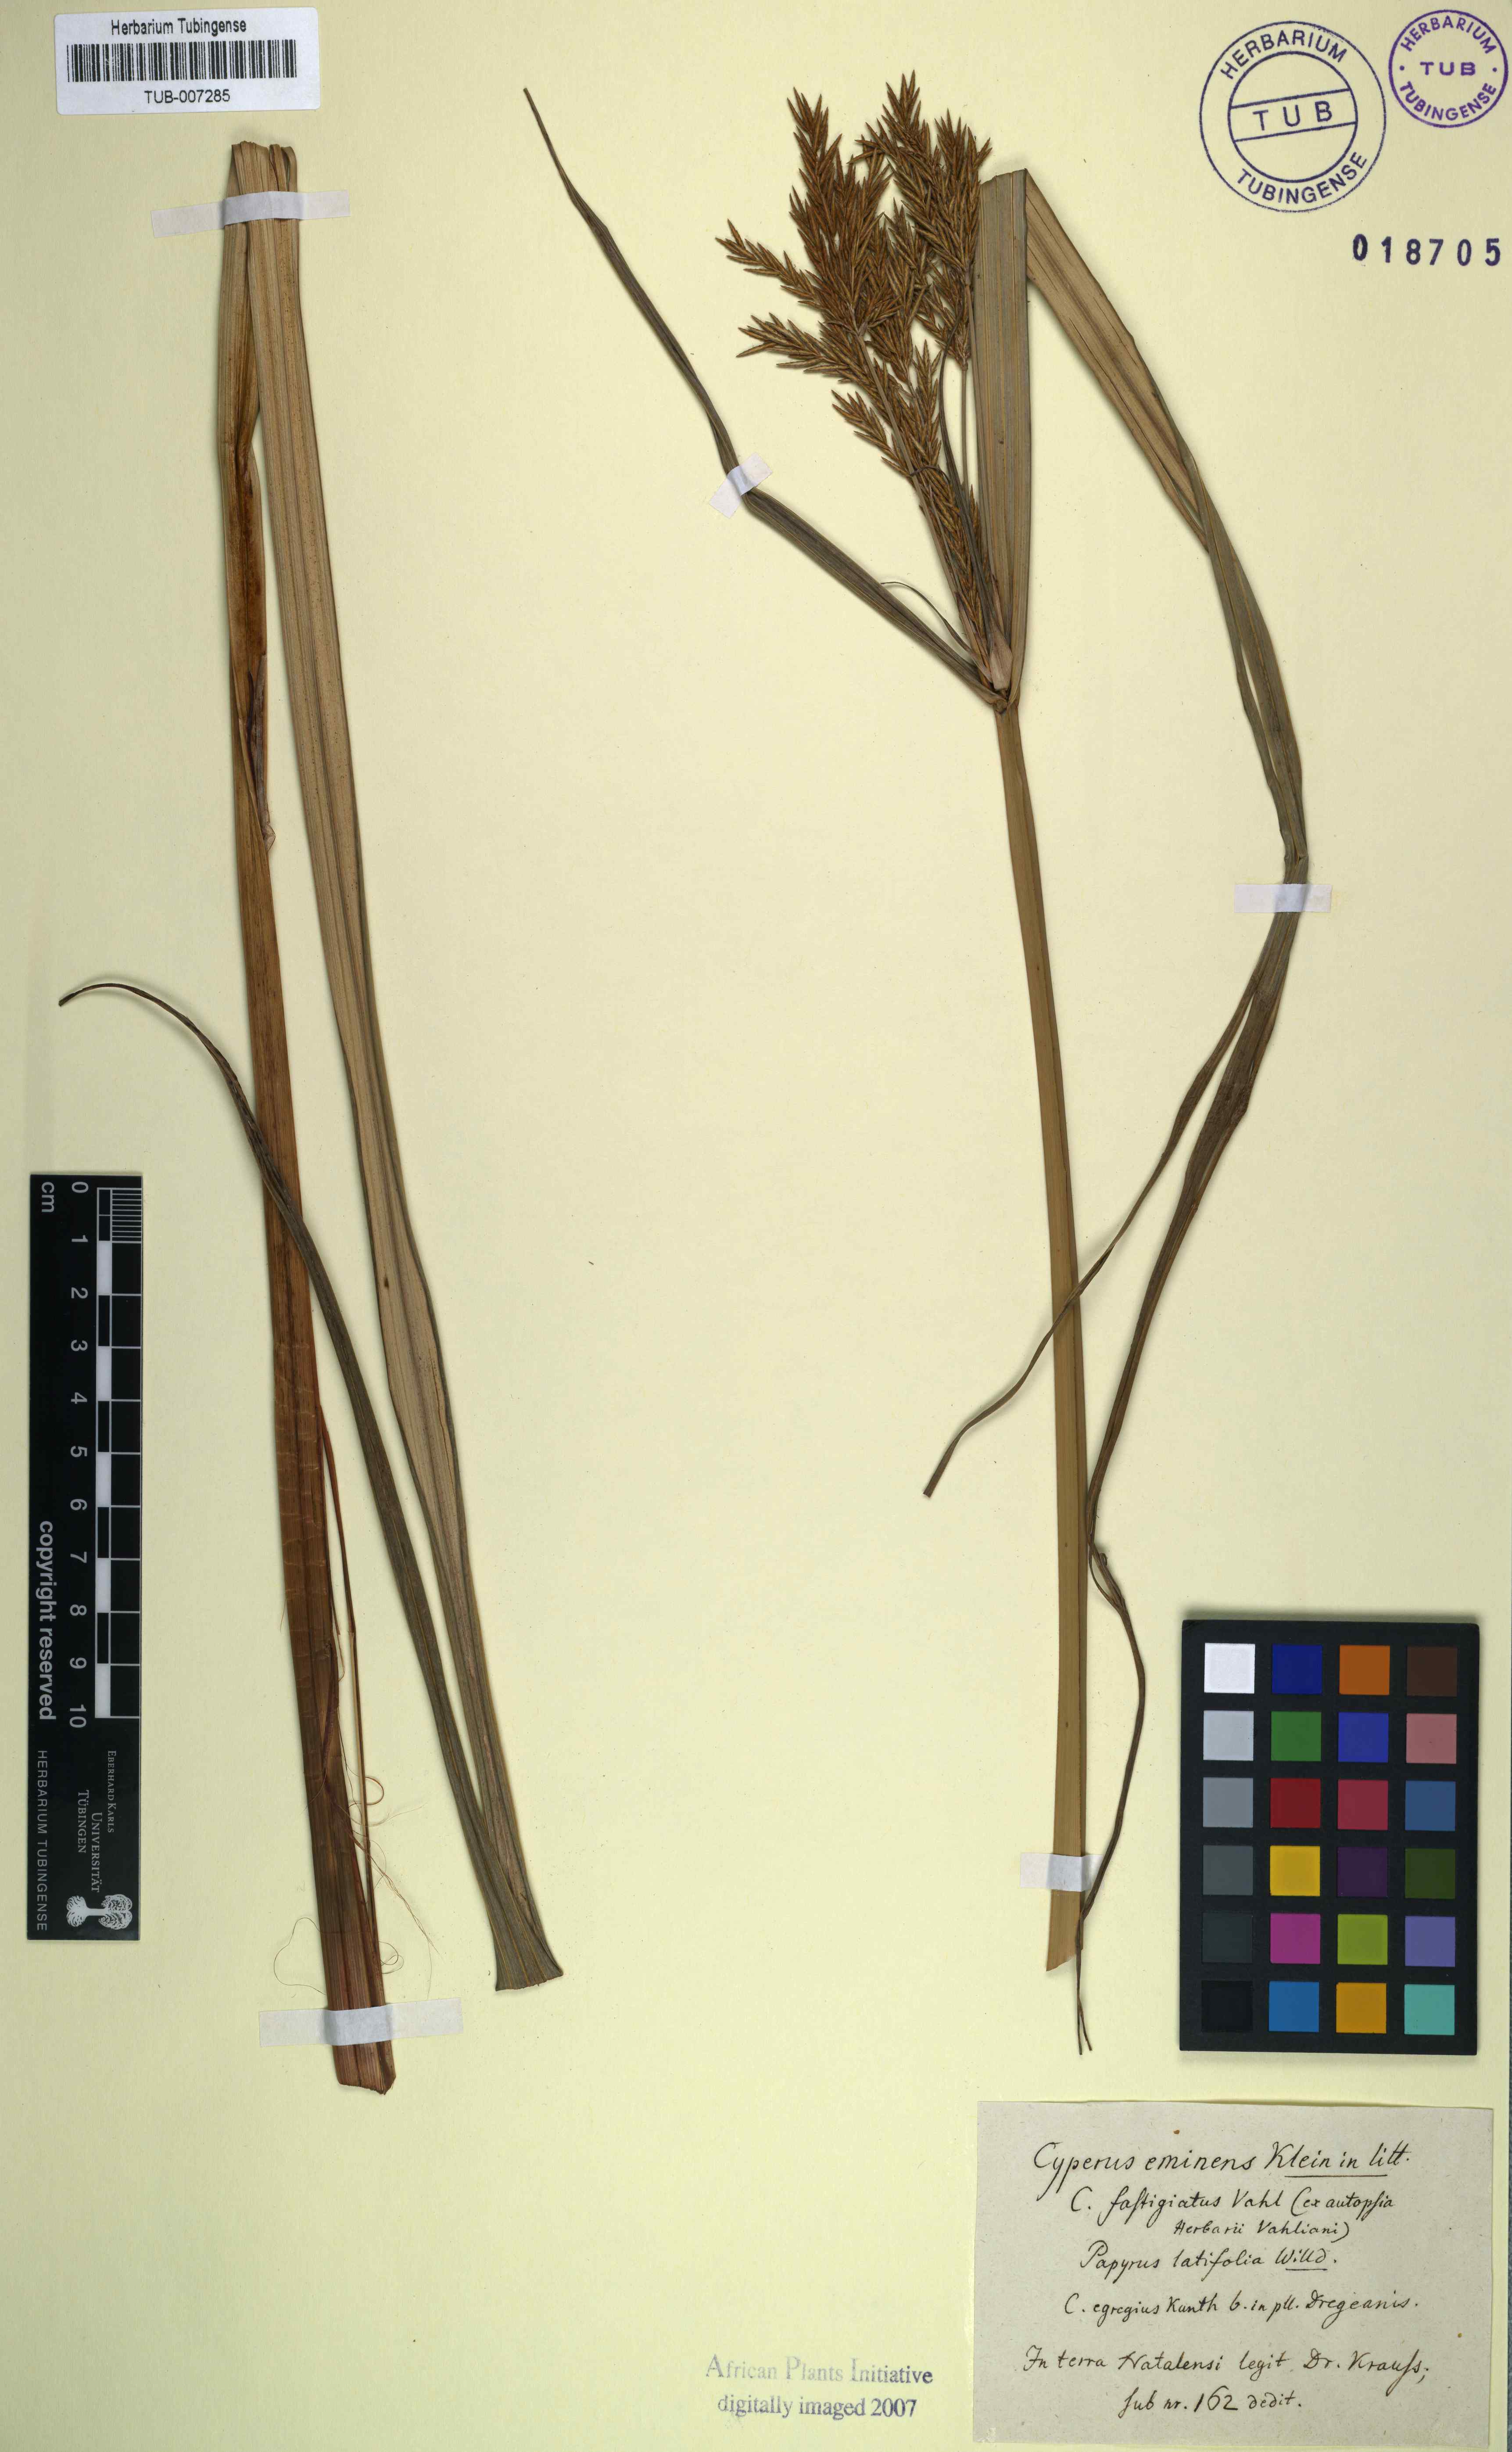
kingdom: Plantae
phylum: Tracheophyta
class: Liliopsida
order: Poales
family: Cyperaceae
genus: Cyperus
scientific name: Cyperus platyphyllus
